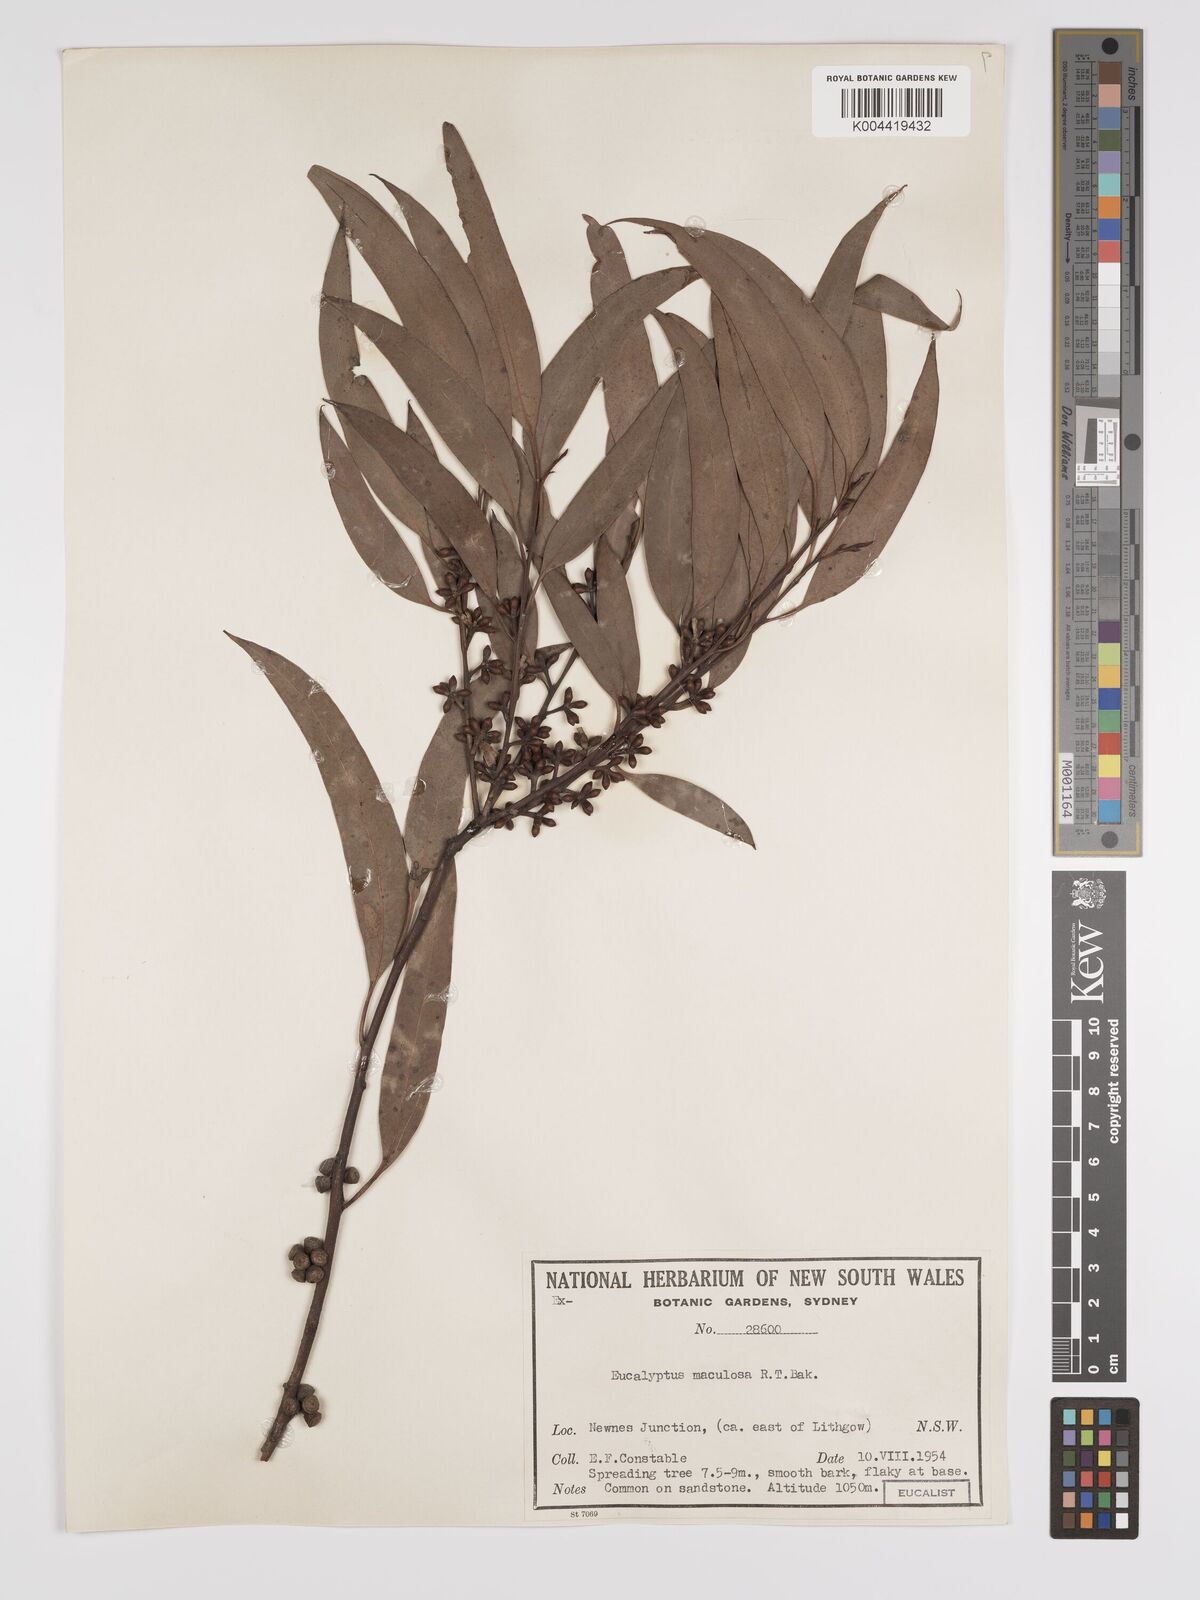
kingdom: Plantae
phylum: Tracheophyta
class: Magnoliopsida
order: Myrtales
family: Myrtaceae
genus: Eucalyptus
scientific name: Eucalyptus mannifera
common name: Manna gum
